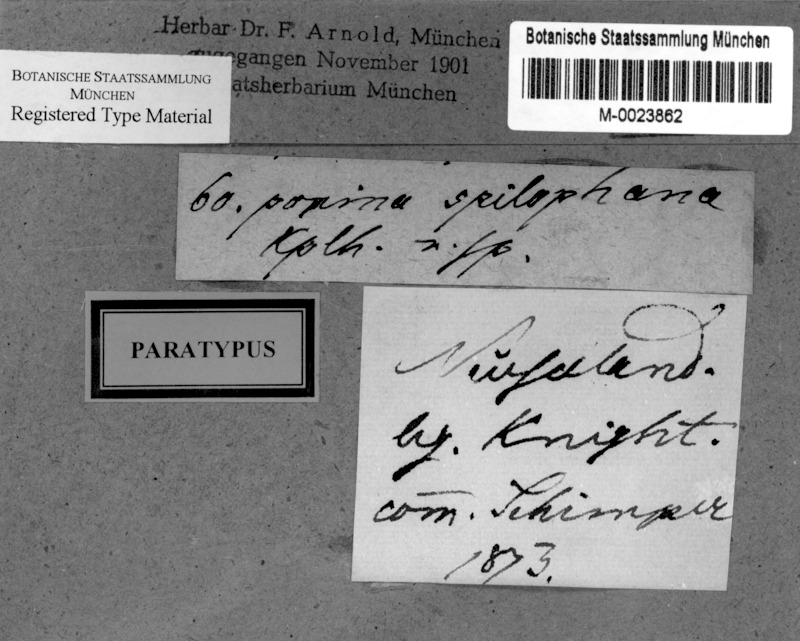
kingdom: Fungi
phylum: Ascomycota
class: Lecanoromycetes
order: Pertusariales
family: Pertusariaceae
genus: Segestria
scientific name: Segestria
